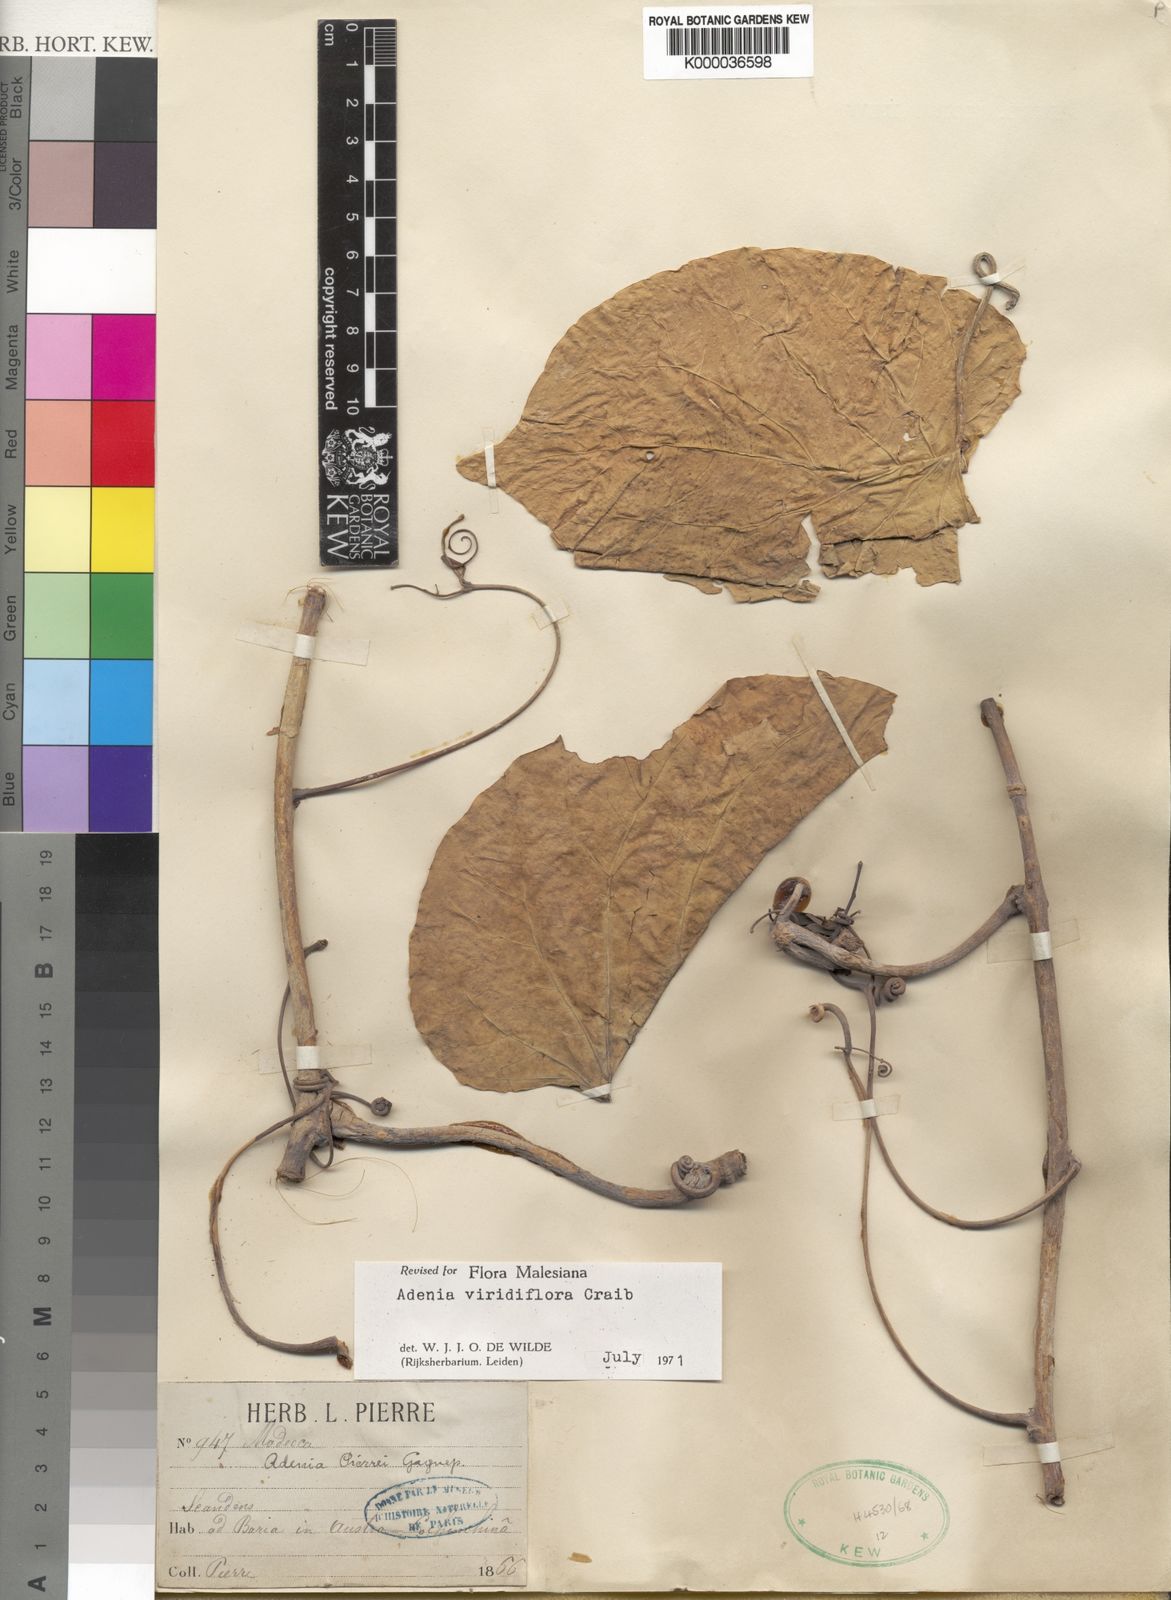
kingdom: Plantae
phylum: Tracheophyta
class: Magnoliopsida
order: Malpighiales
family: Passifloraceae
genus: Adenia
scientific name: Adenia viridiflora
